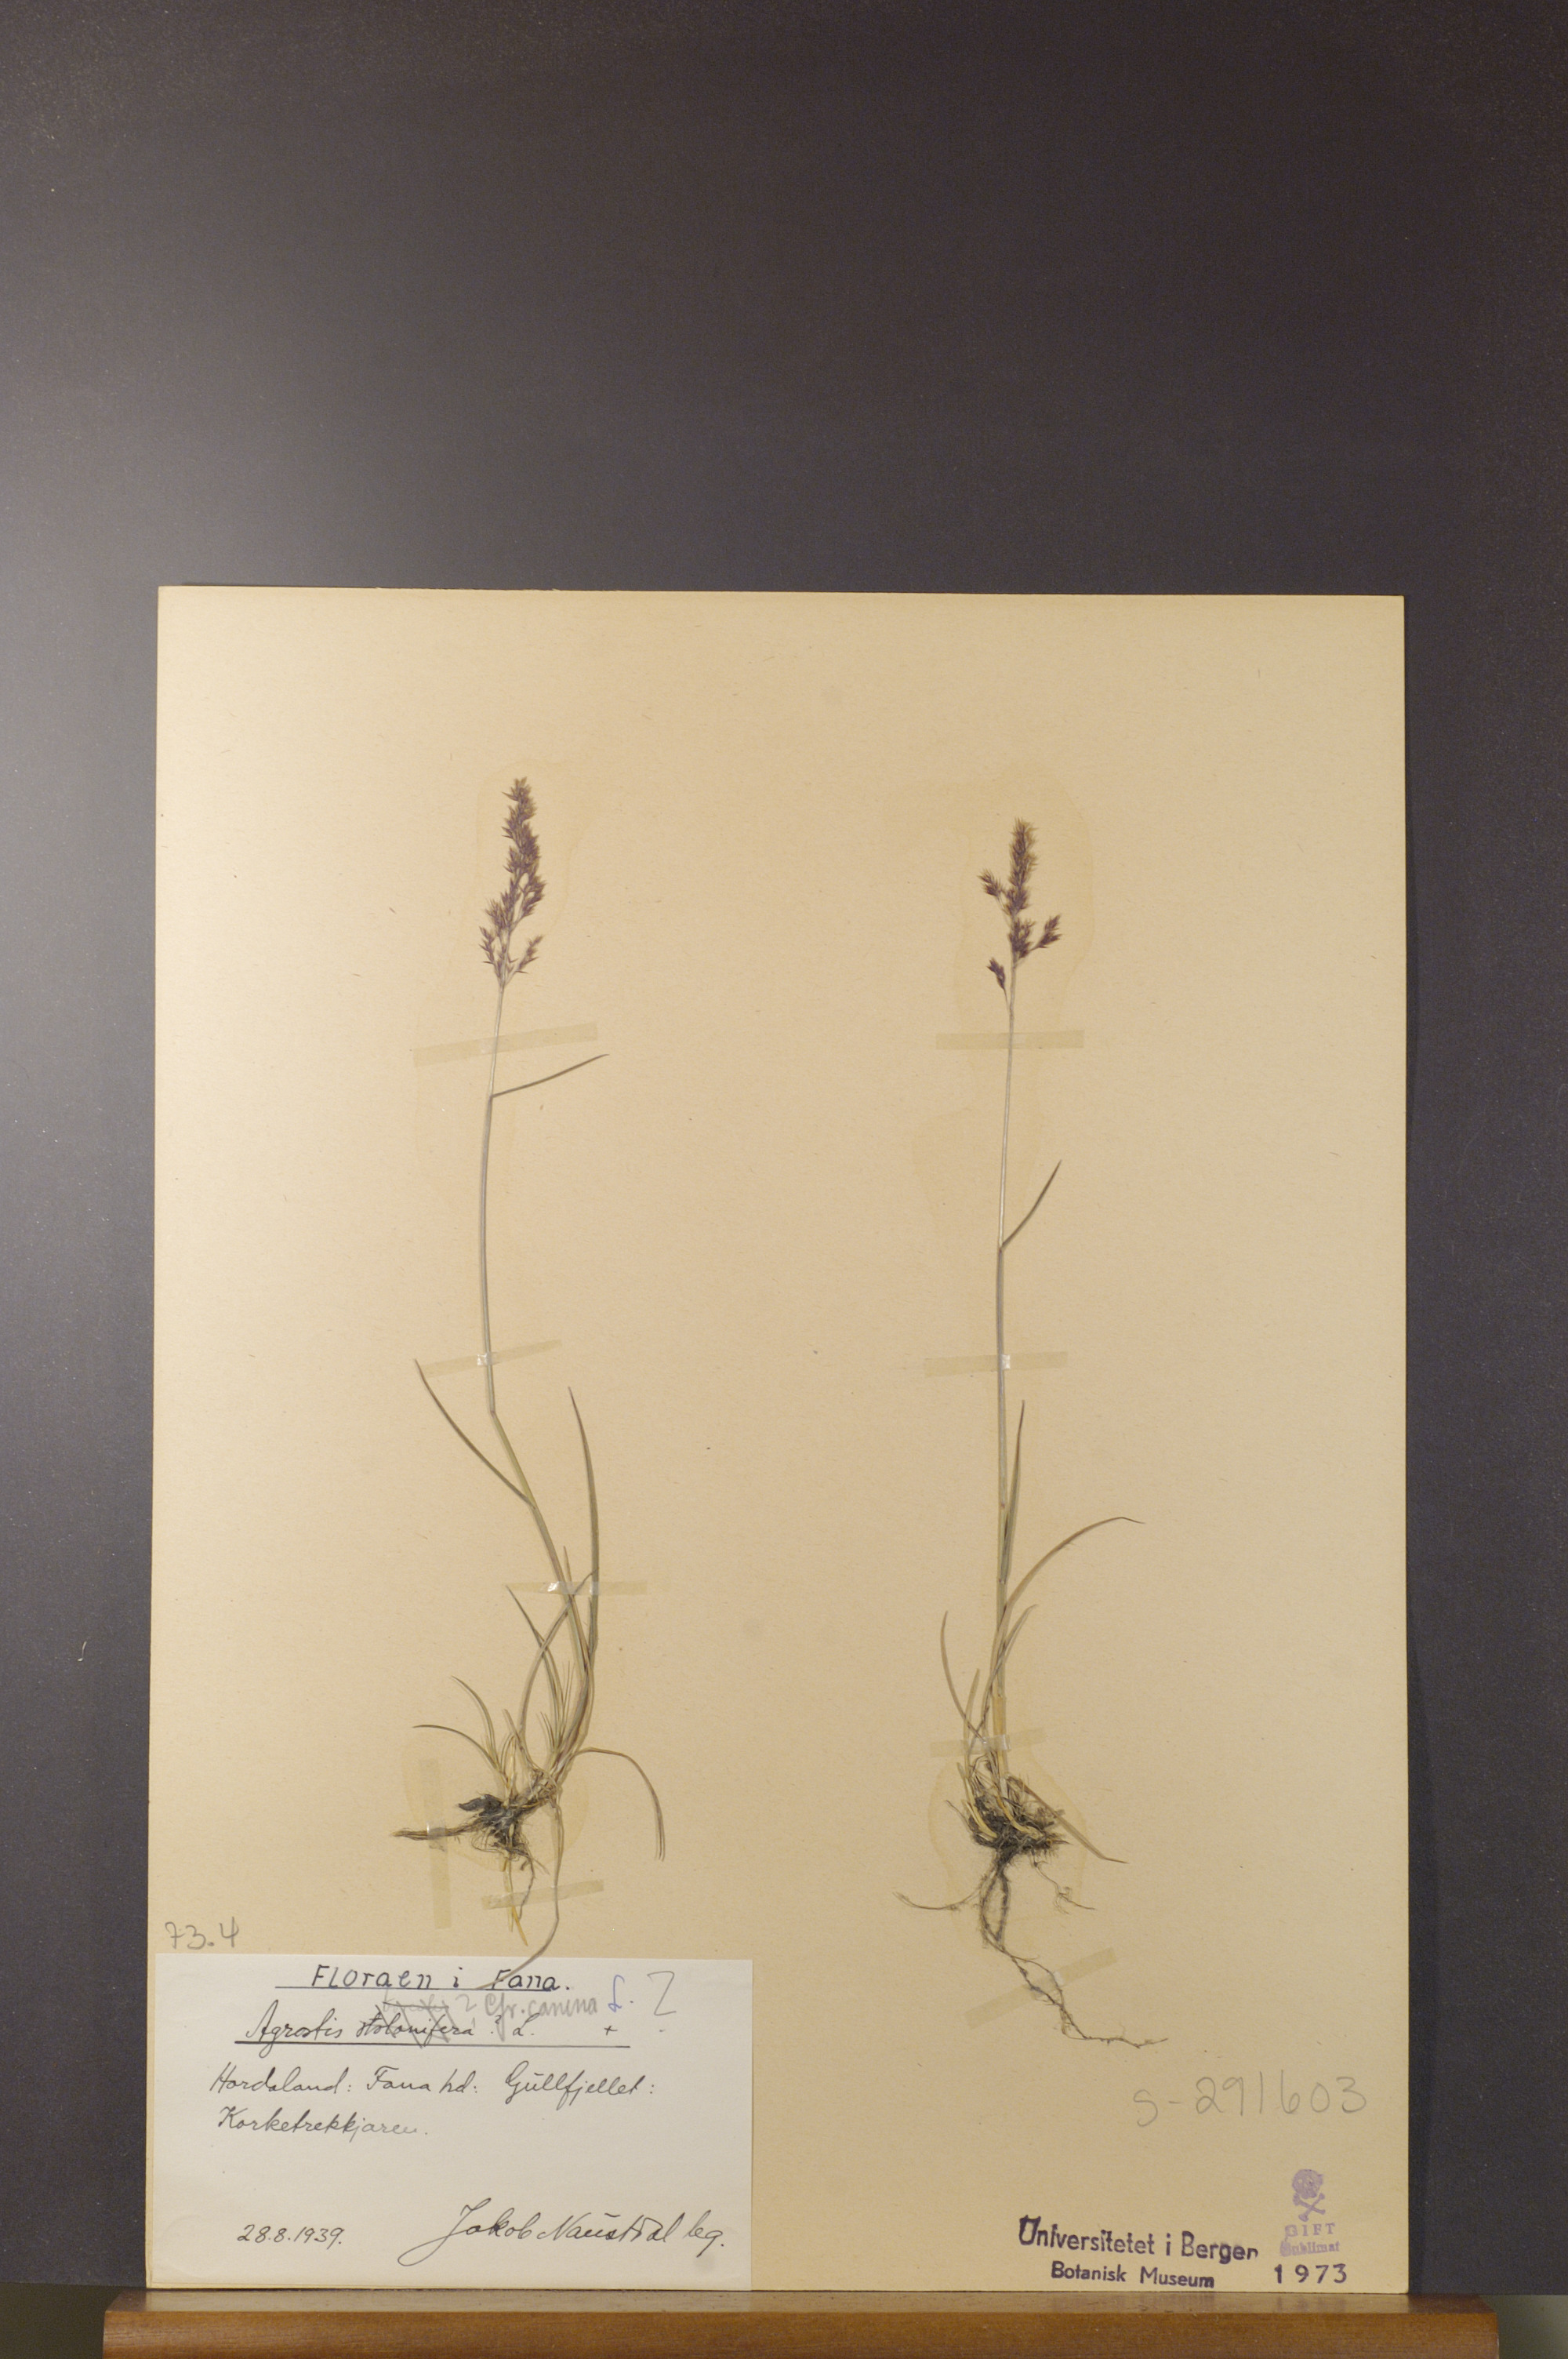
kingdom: Plantae
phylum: Tracheophyta
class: Liliopsida
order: Poales
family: Poaceae
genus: Agrostis
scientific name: Agrostis canina
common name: Velvet bent
